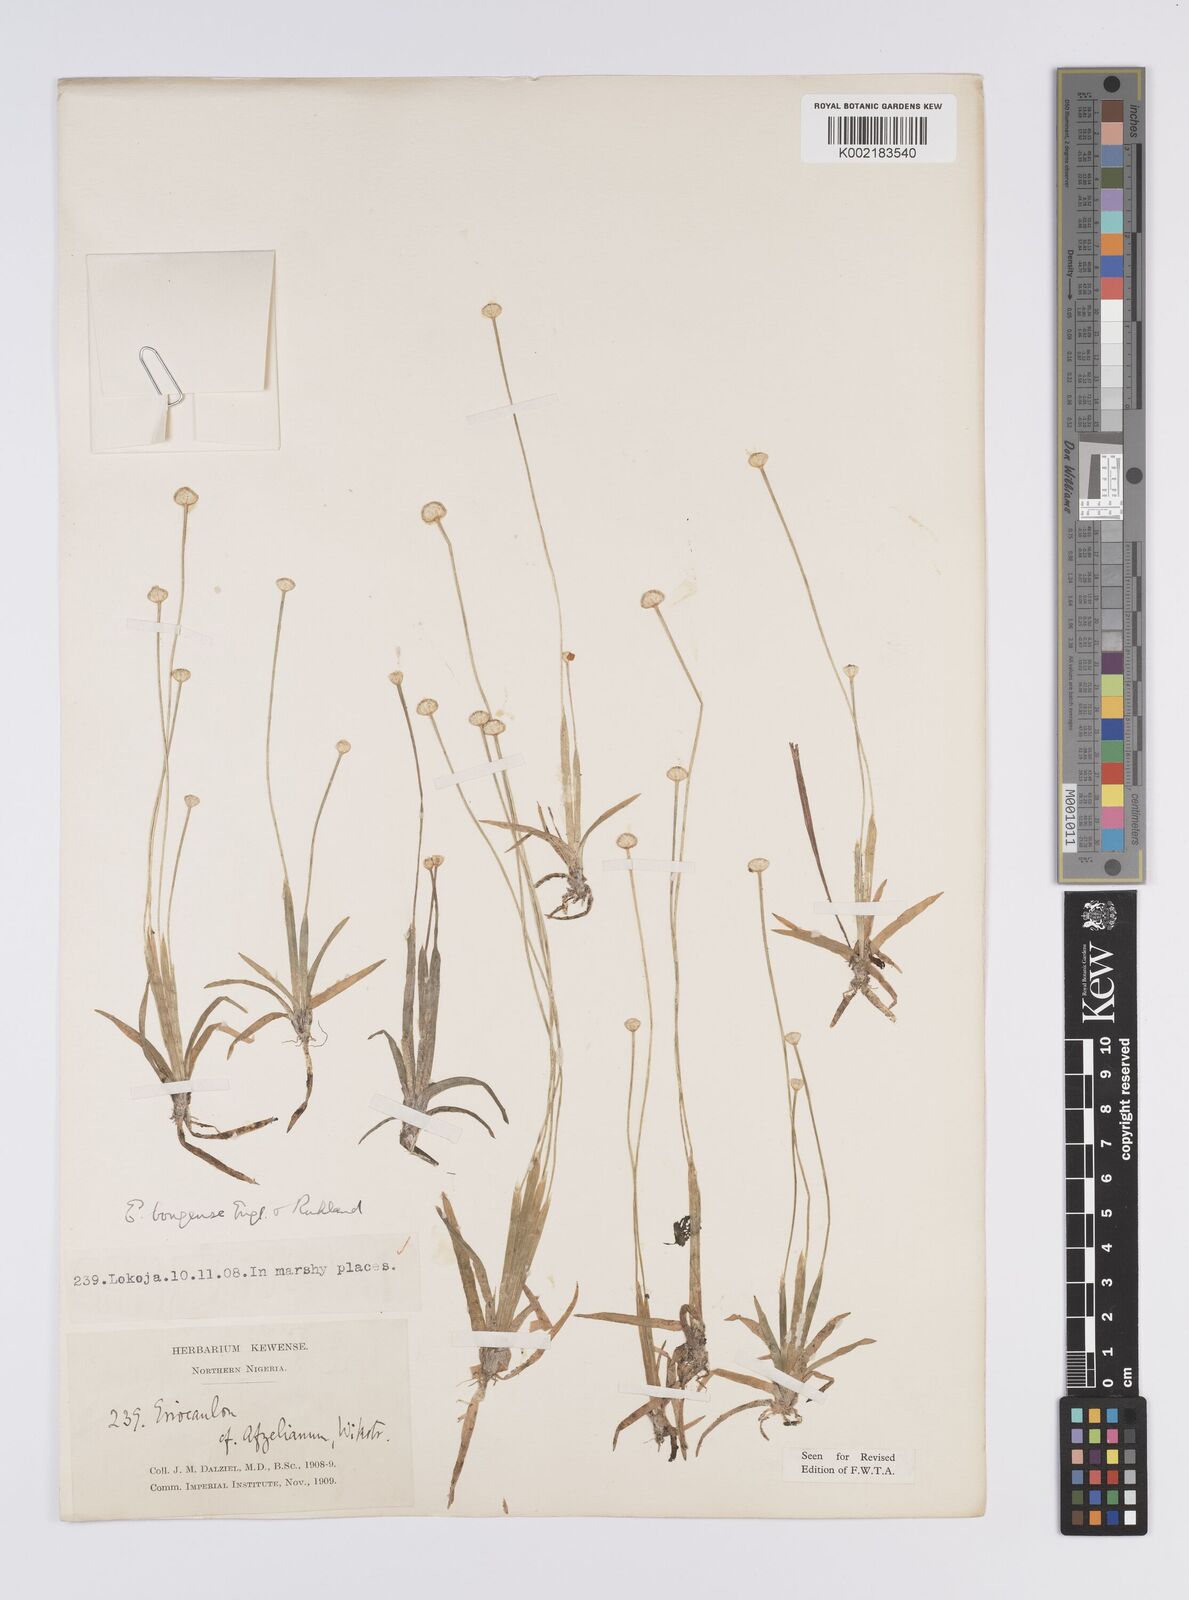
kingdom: Plantae
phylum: Tracheophyta
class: Liliopsida
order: Poales
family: Eriocaulaceae
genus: Eriocaulon
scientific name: Eriocaulon bongense
